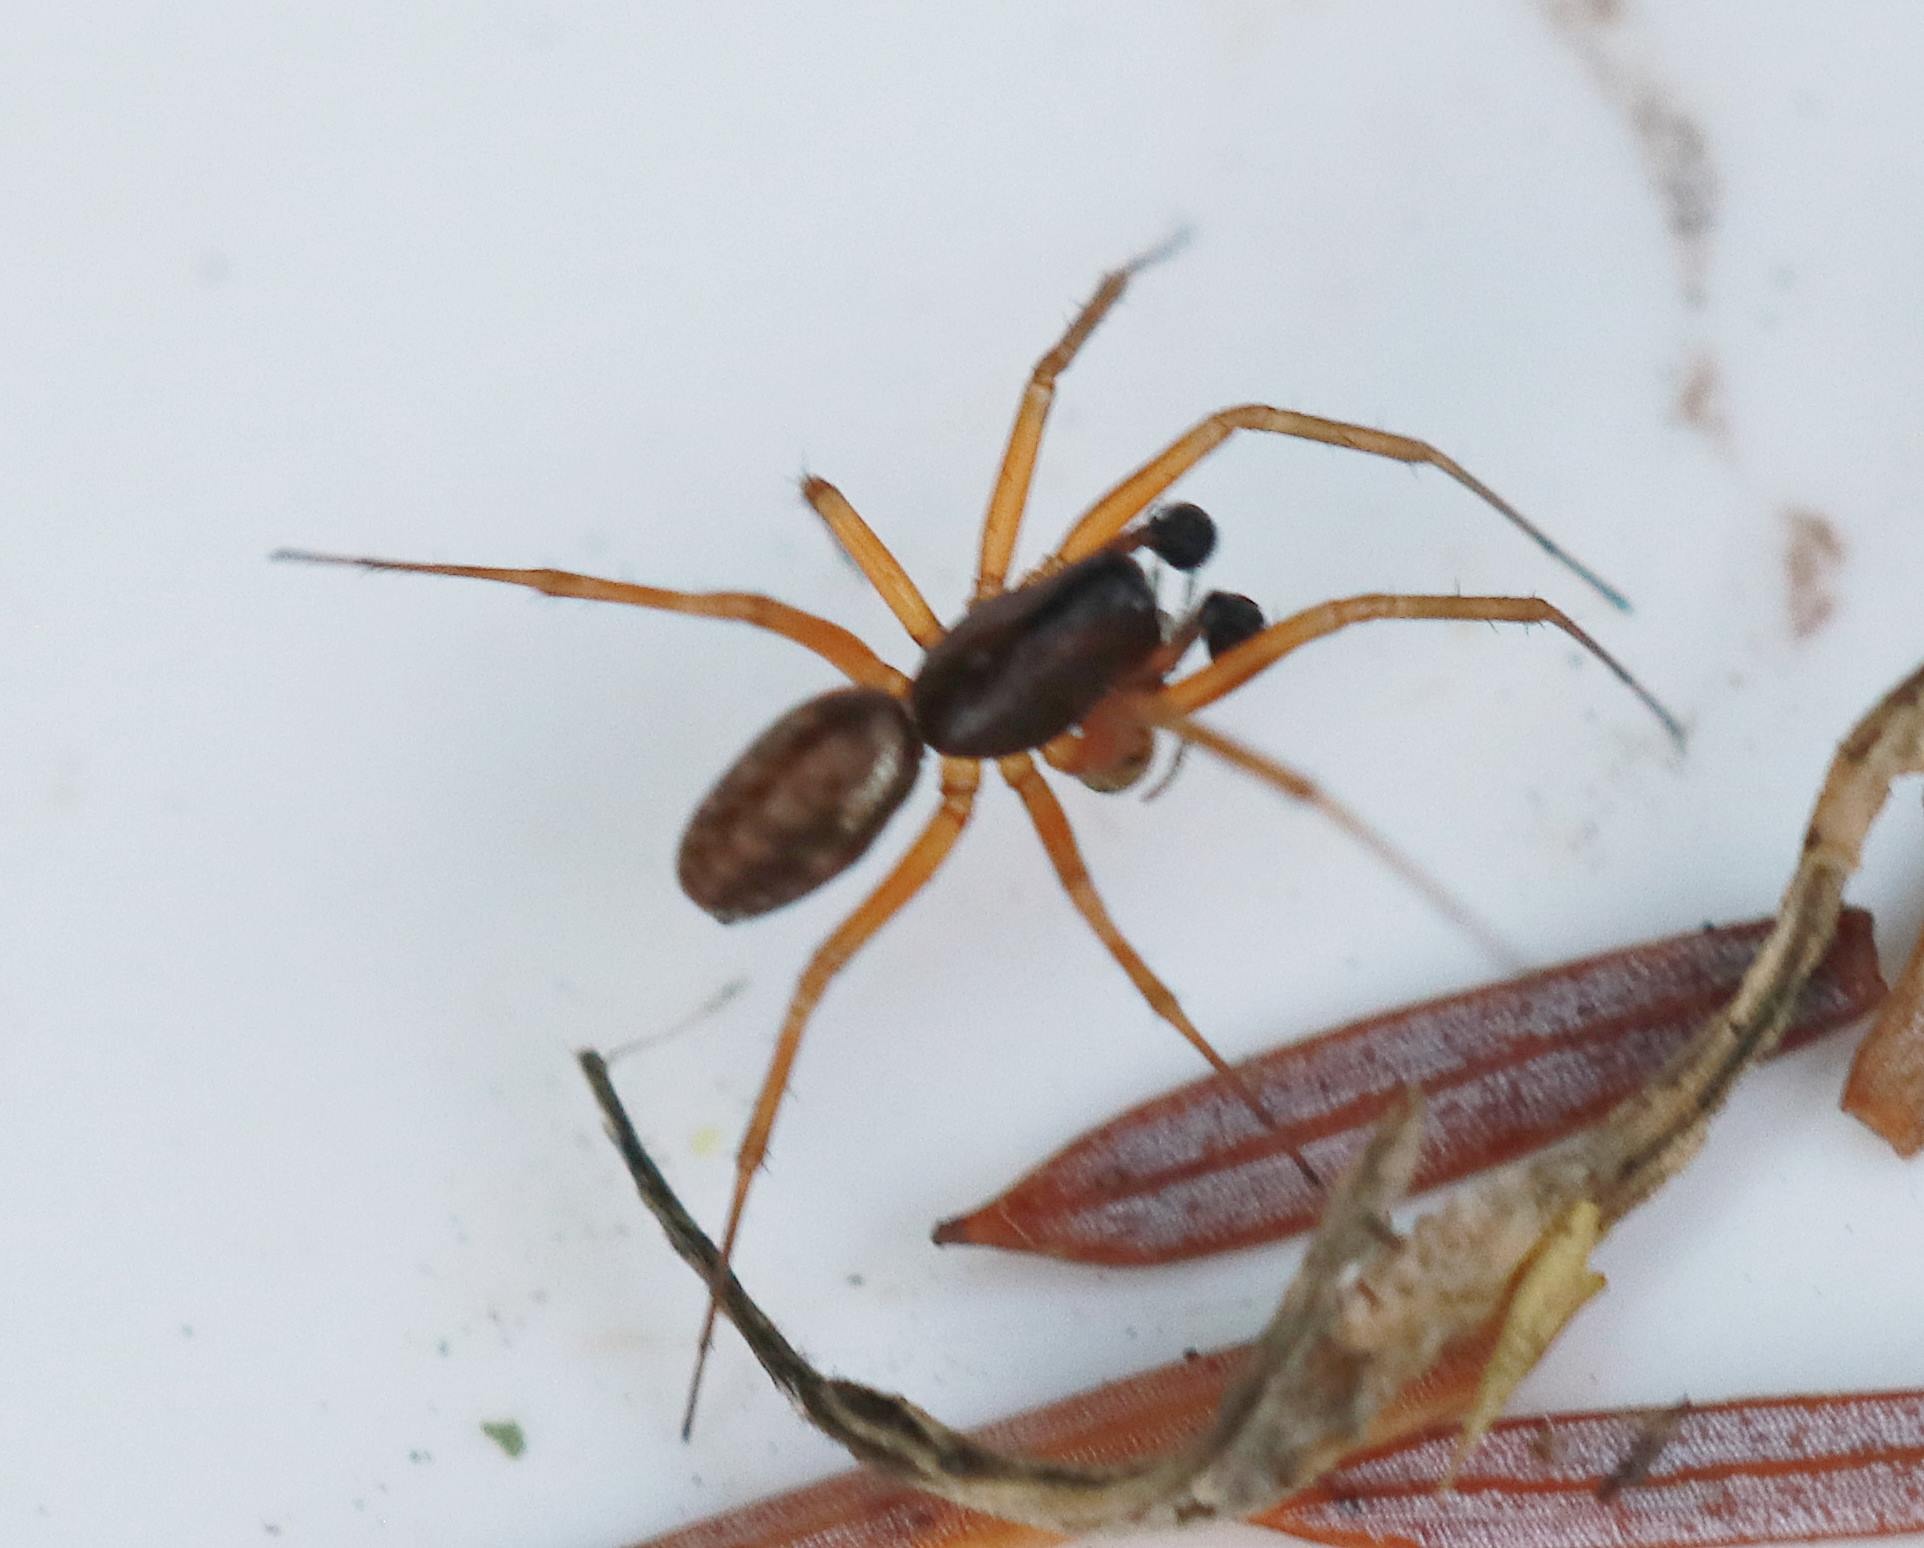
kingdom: Animalia
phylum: Arthropoda
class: Arachnida
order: Araneae
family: Linyphiidae
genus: Neriene
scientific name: Neriene clathrata
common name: Kratbaldakinspinder
